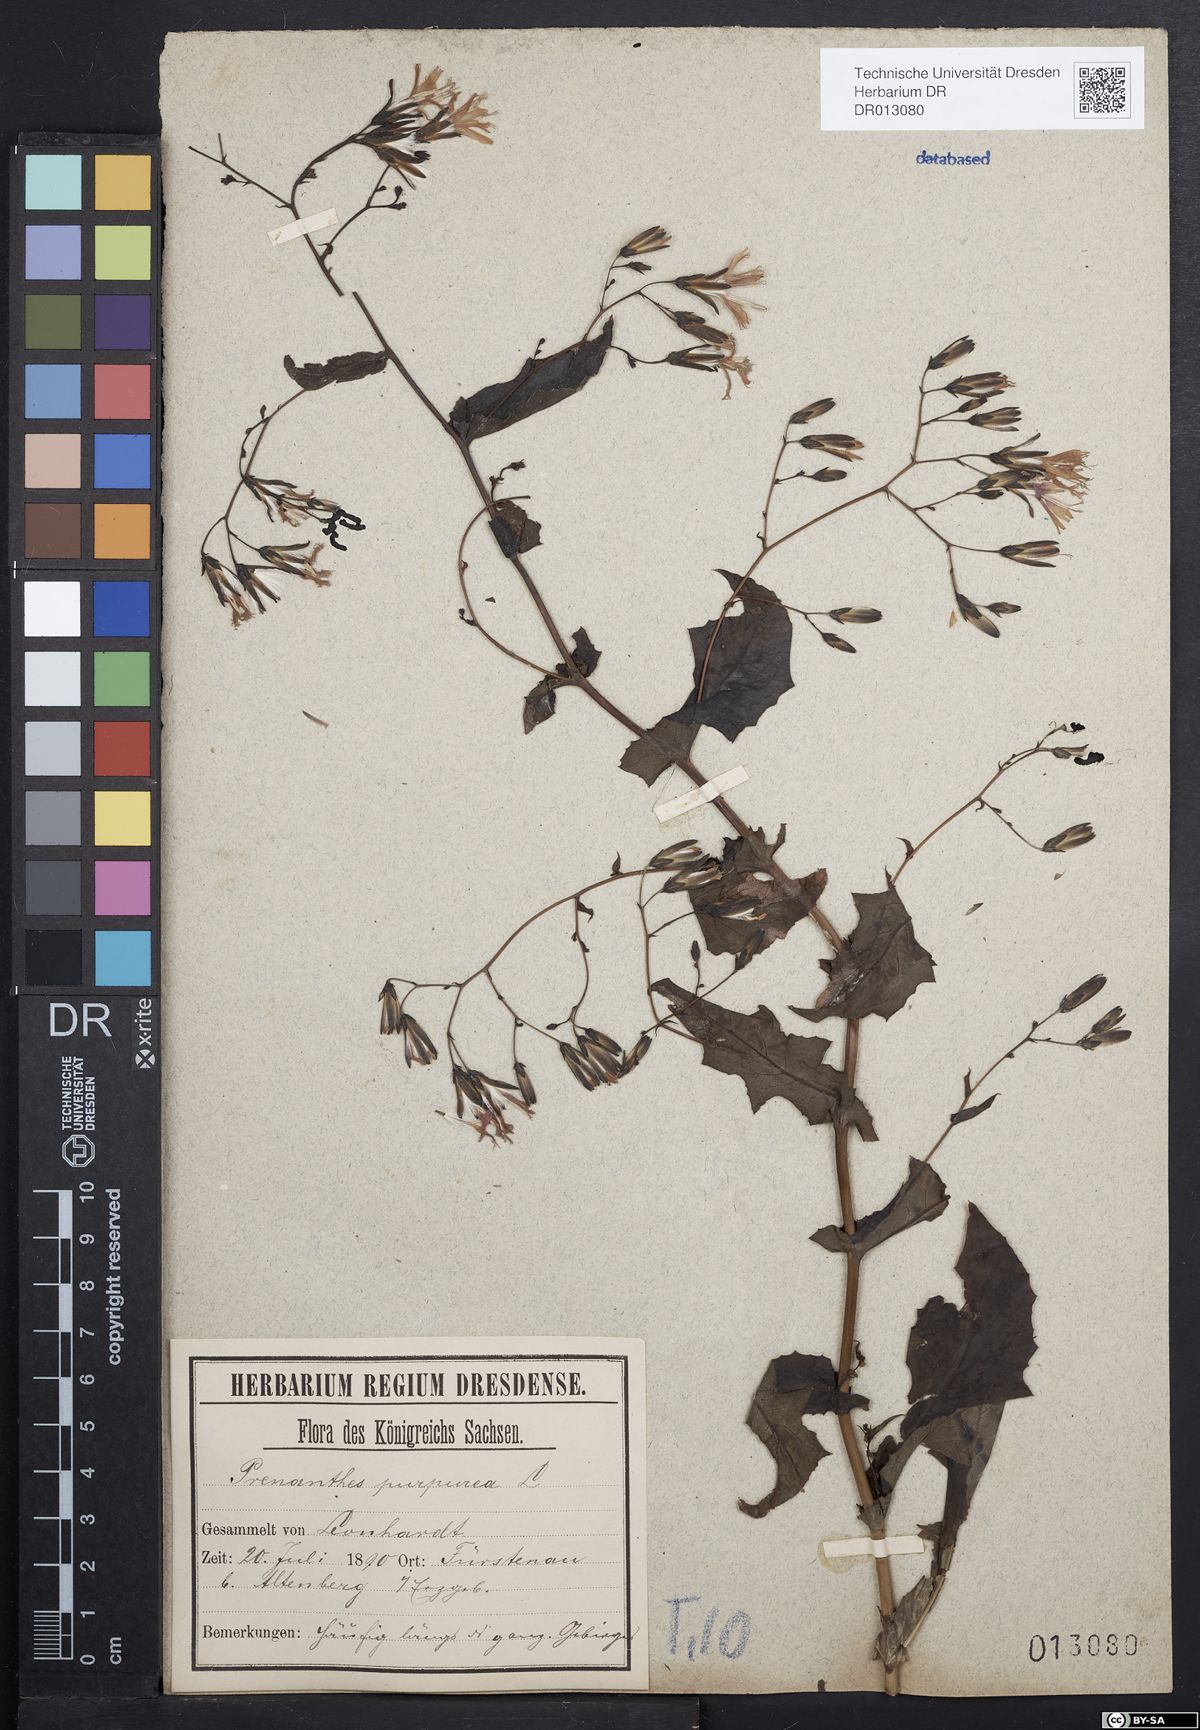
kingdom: Plantae
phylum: Tracheophyta
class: Magnoliopsida
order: Asterales
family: Asteraceae
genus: Prenanthes
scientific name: Prenanthes purpurea
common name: Purple lettuce
